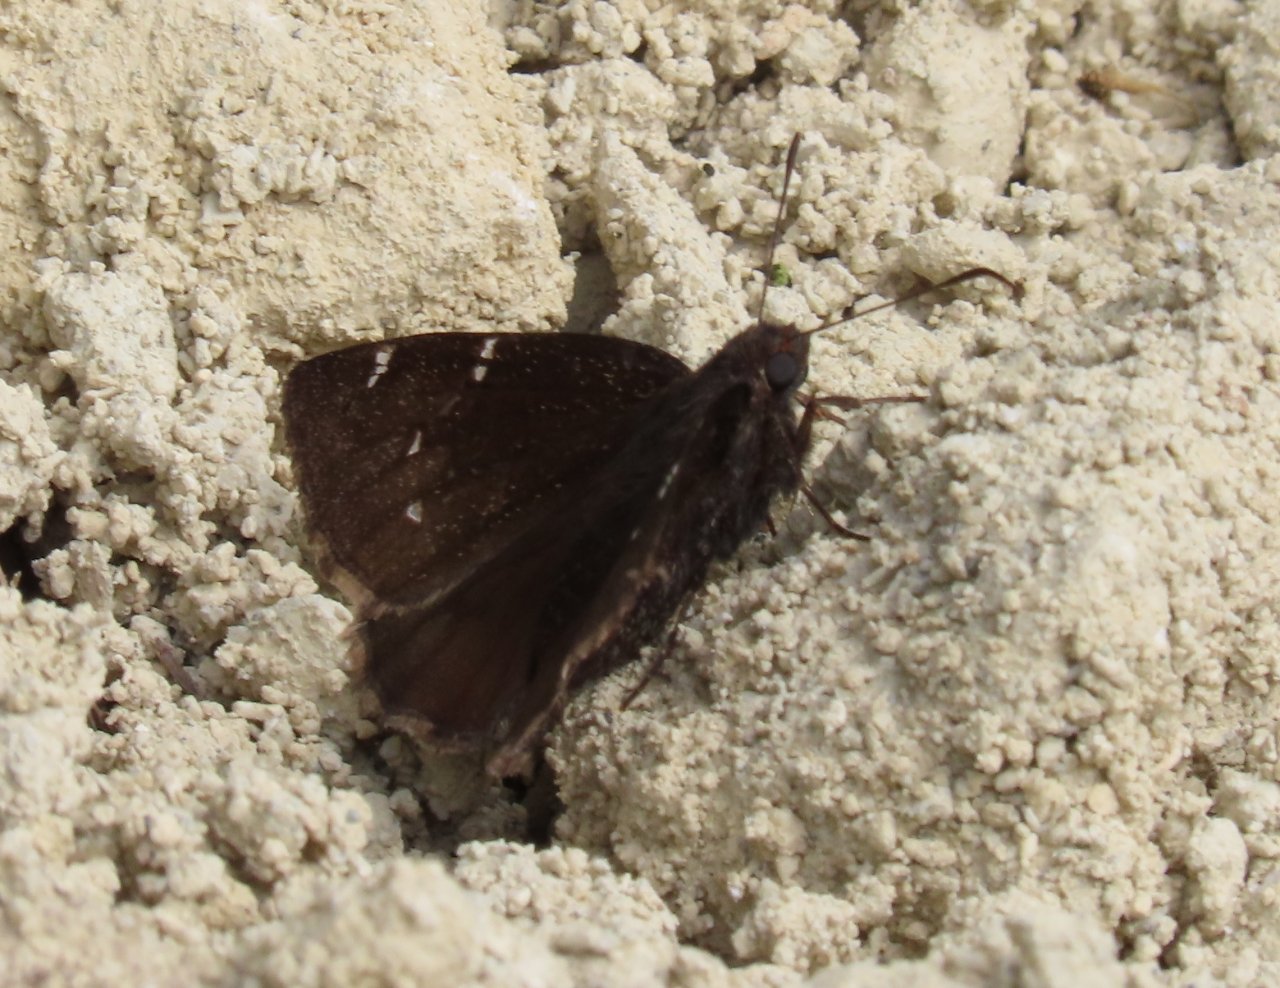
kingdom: Animalia
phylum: Arthropoda
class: Insecta
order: Lepidoptera
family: Hesperiidae
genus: Autochton
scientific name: Autochton
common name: Northern Cloudywing
